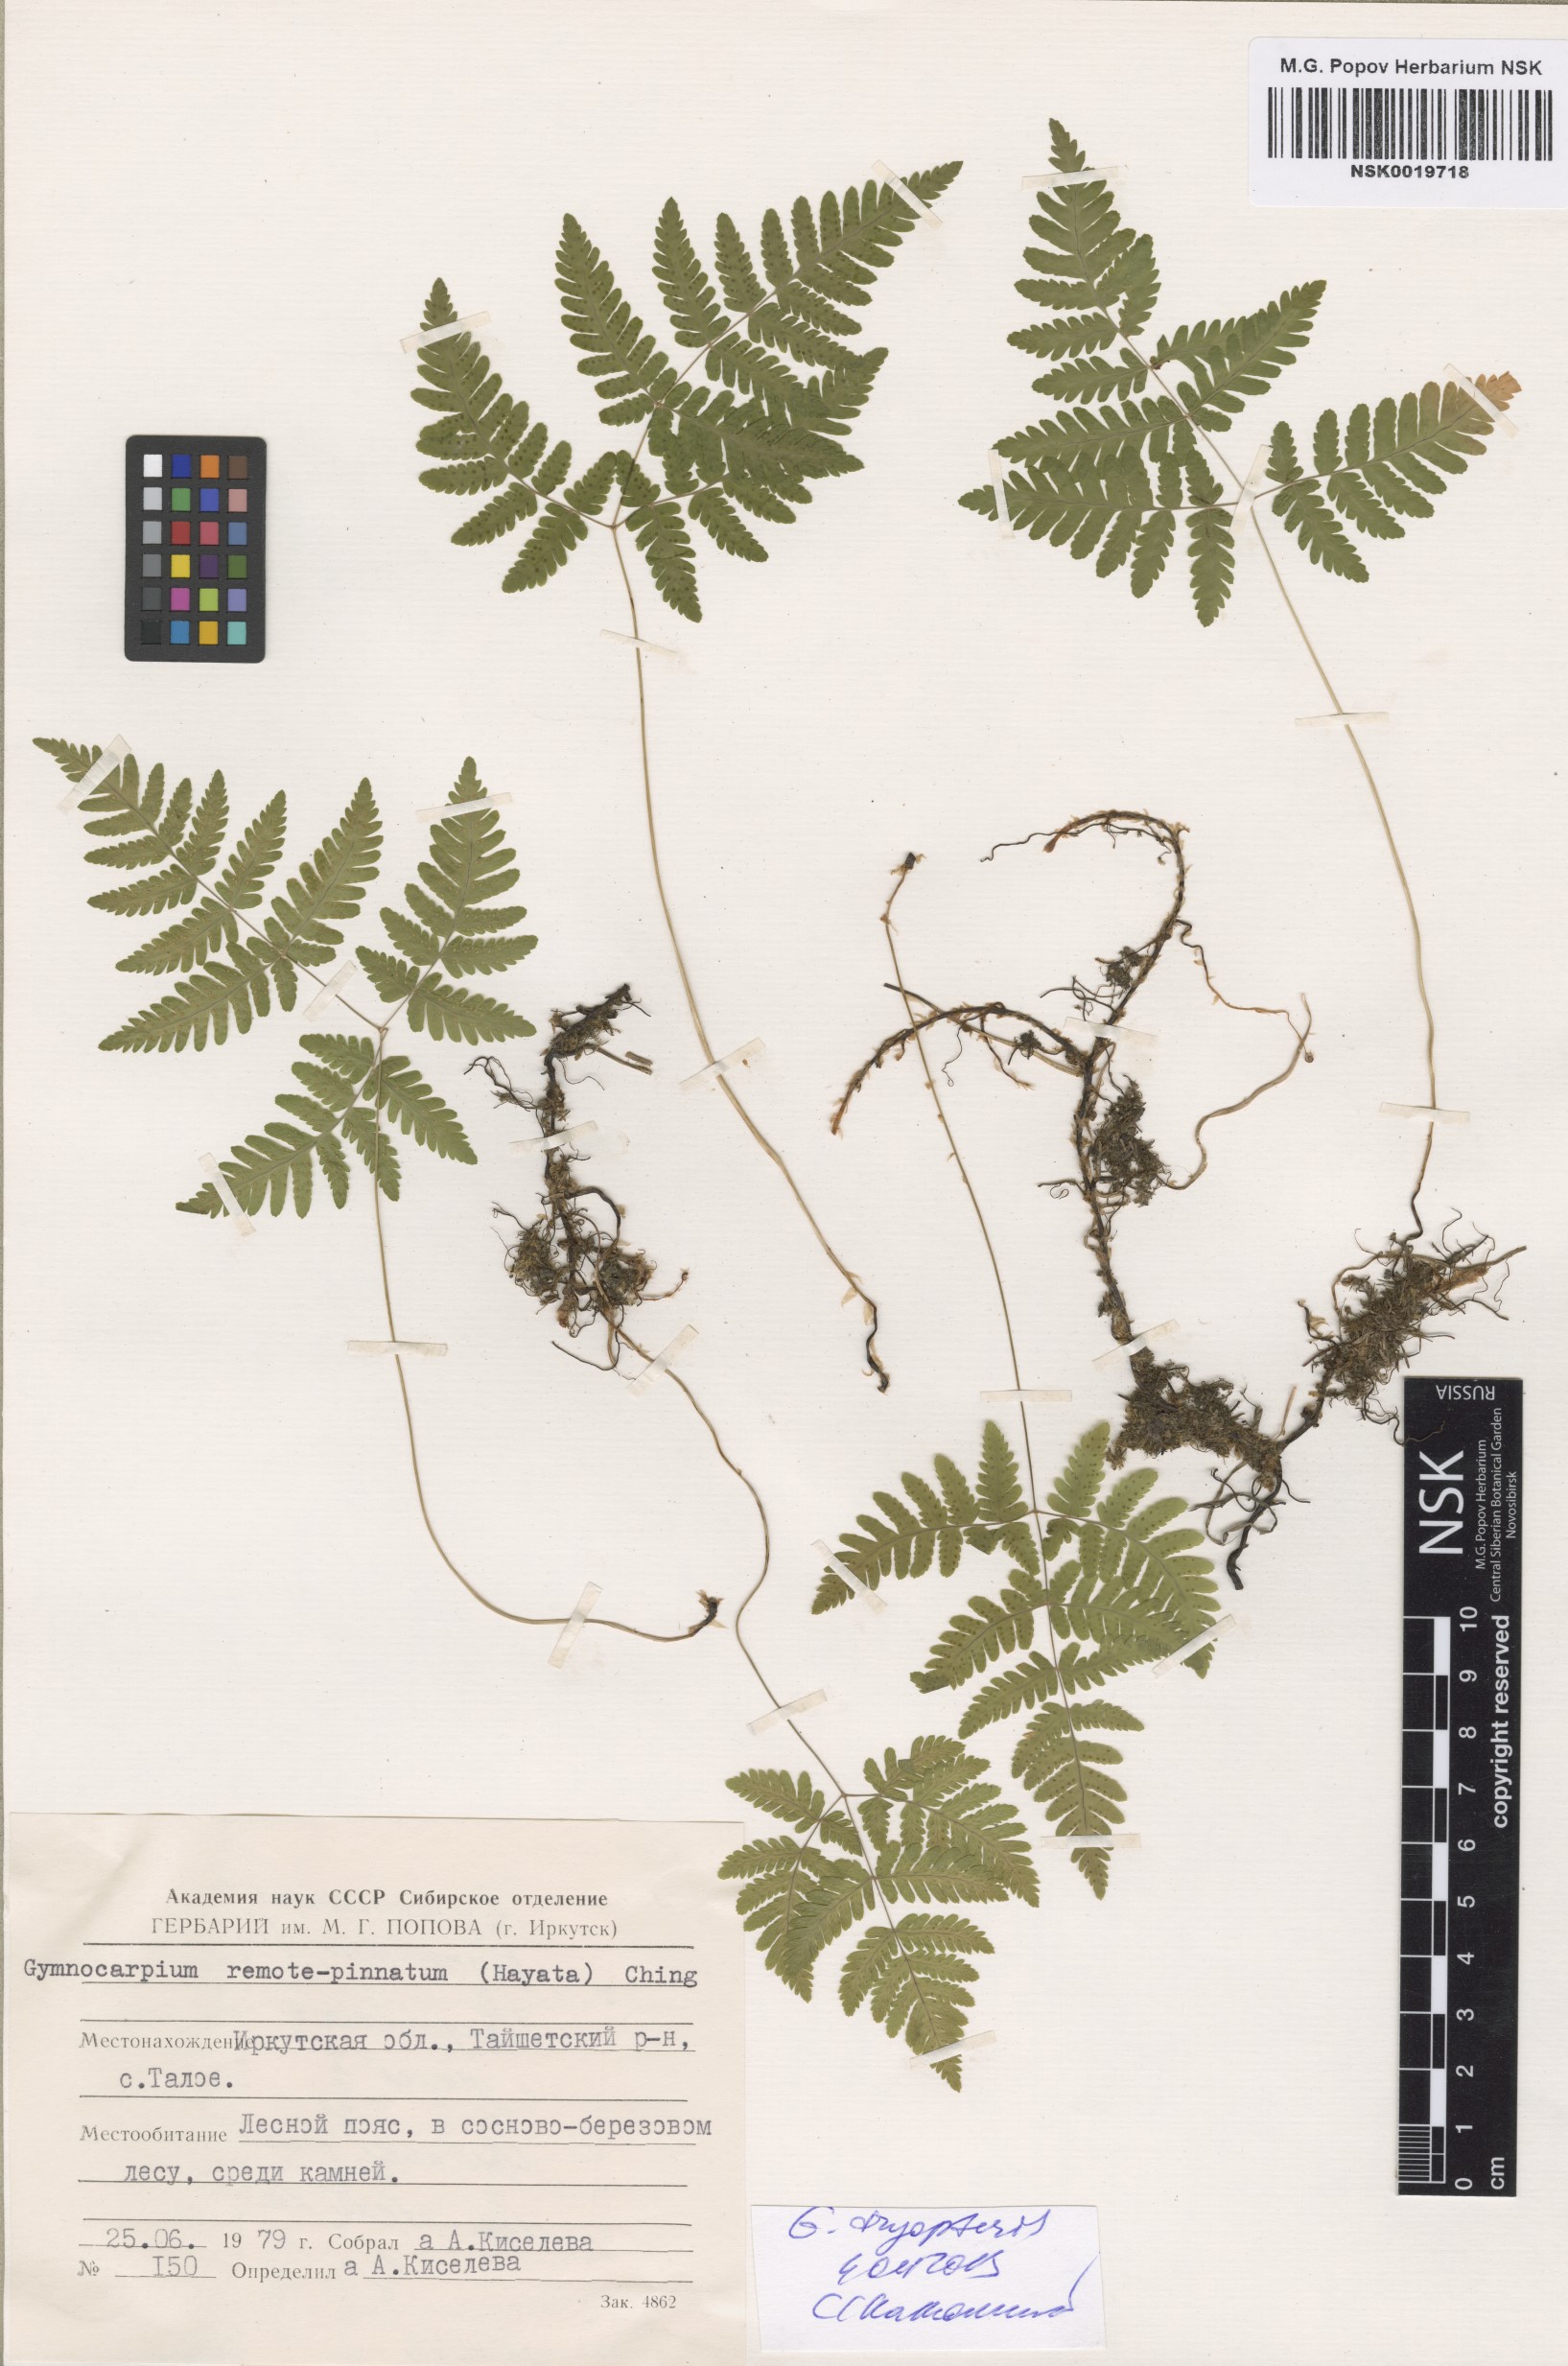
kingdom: Plantae
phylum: Tracheophyta
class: Polypodiopsida
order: Polypodiales
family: Cystopteridaceae
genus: Gymnocarpium
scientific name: Gymnocarpium continentale
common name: Asian oak fern
